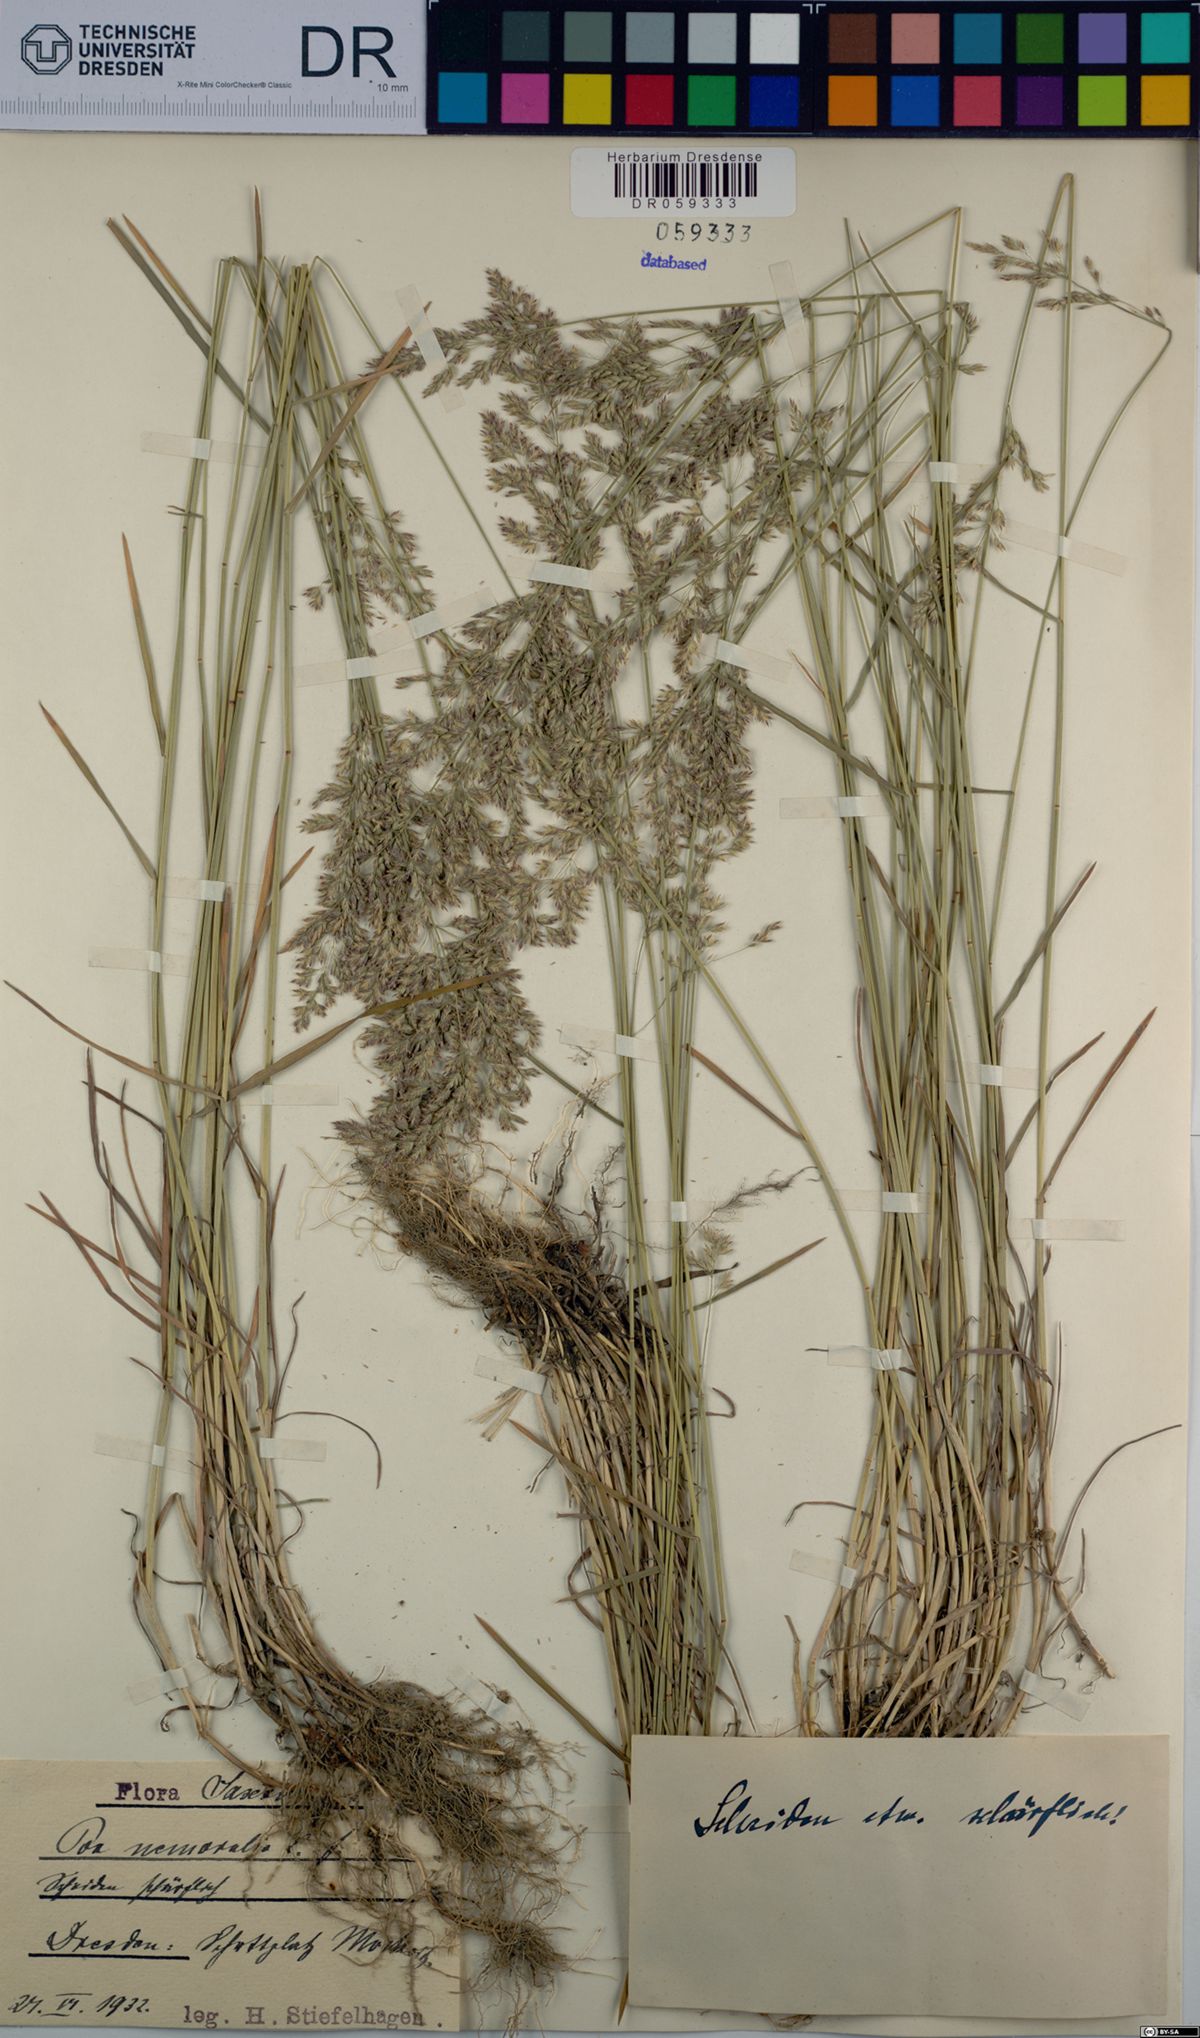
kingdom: Plantae
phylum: Tracheophyta
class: Liliopsida
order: Poales
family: Poaceae
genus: Poa
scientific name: Poa nemoralis
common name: Wood bluegrass
